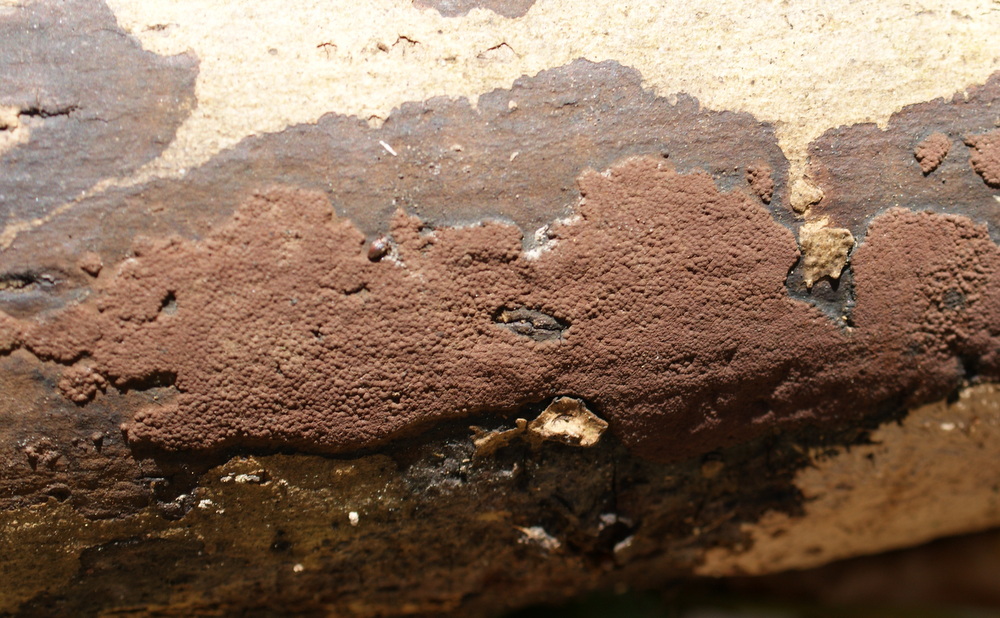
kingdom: Fungi
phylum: Ascomycota
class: Sordariomycetes
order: Xylariales
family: Hypoxylaceae
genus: Hypoxylon
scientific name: Hypoxylon rubiginosum
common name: rustfarvet kulbær
